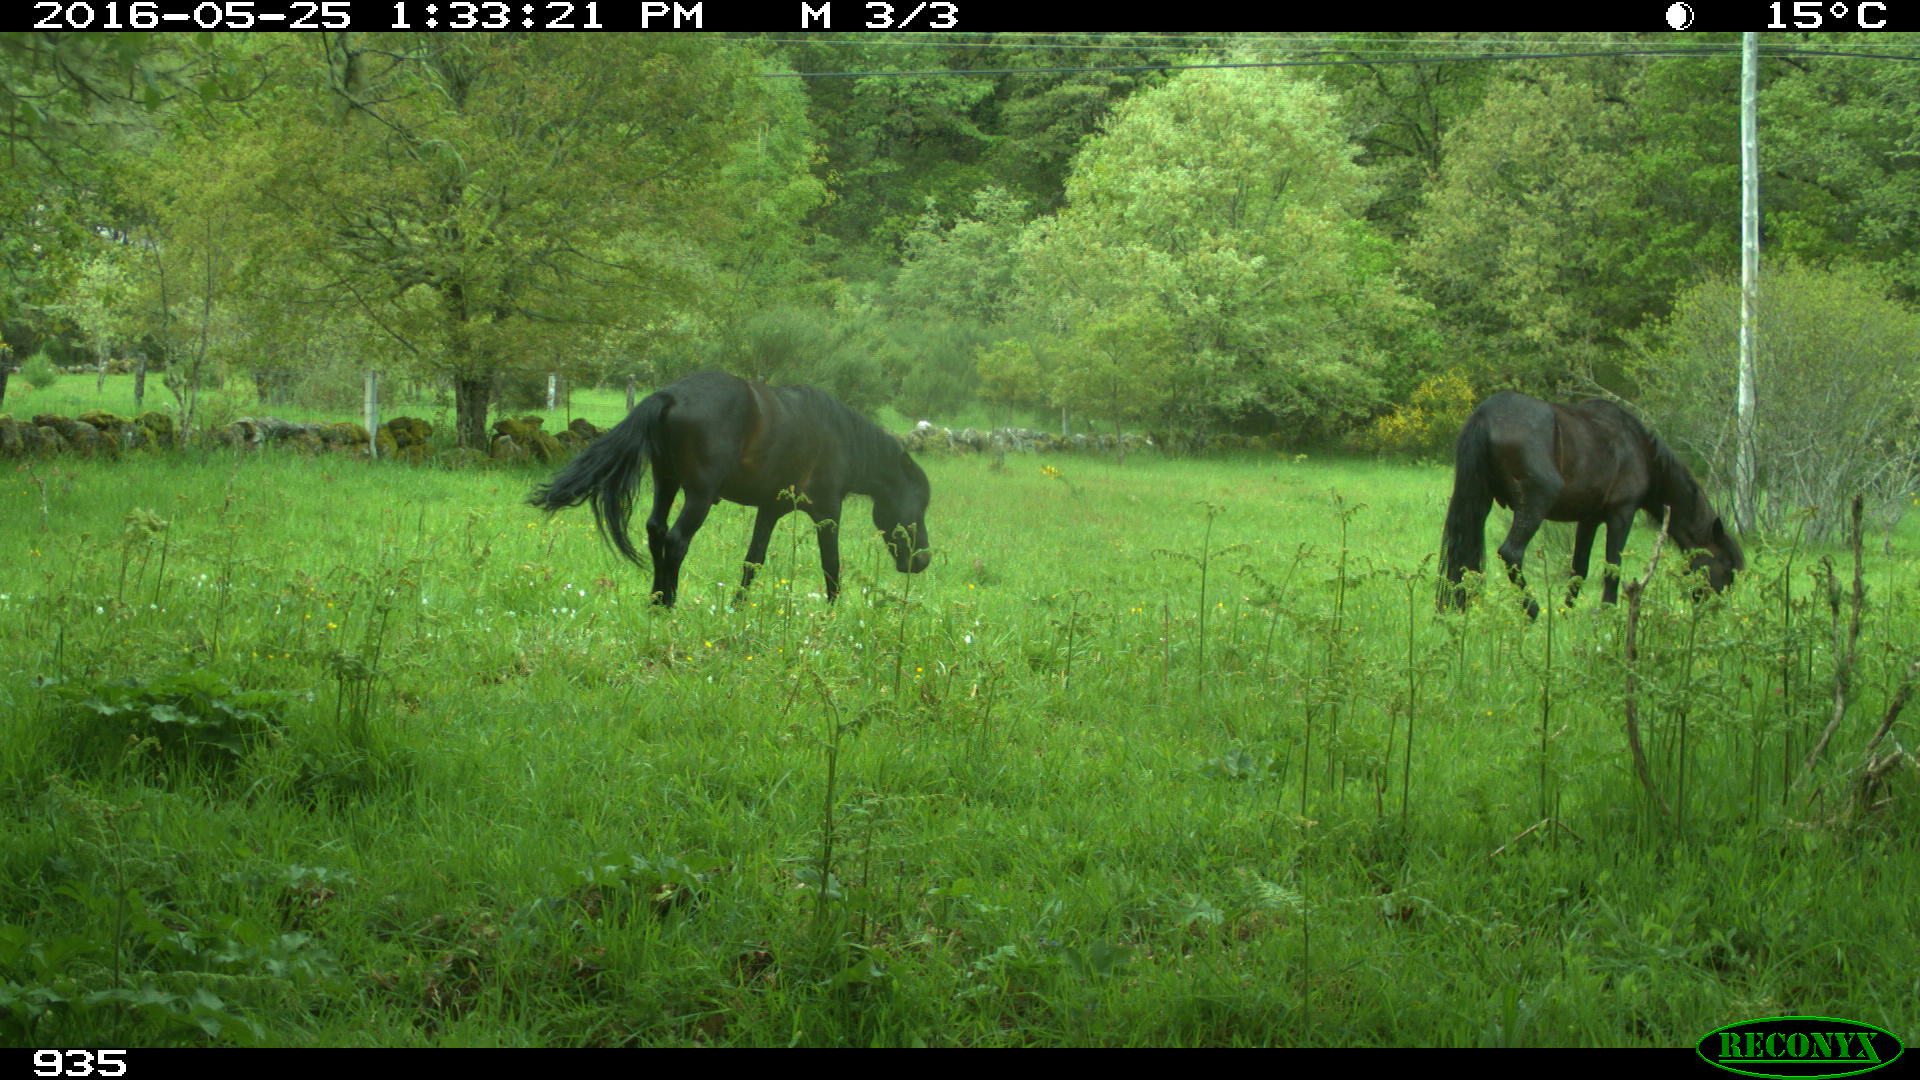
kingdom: Animalia
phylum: Chordata
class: Mammalia
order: Perissodactyla
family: Equidae
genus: Equus
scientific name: Equus caballus
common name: Horse
